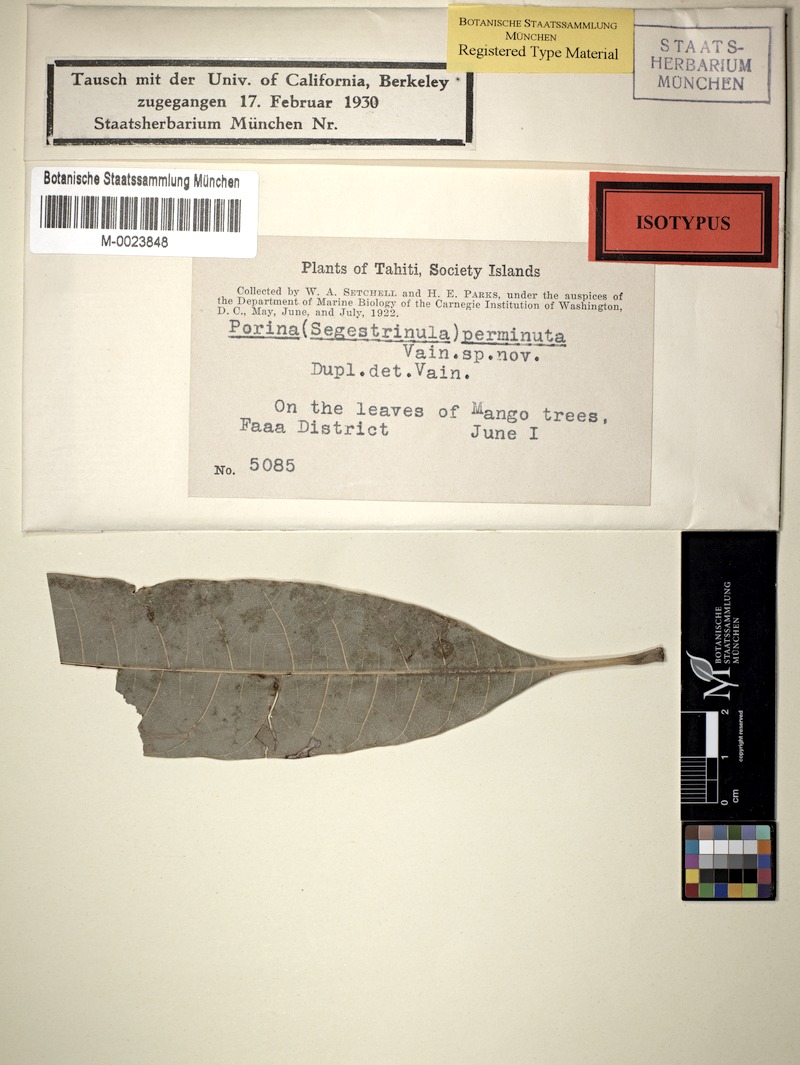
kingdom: Fungi
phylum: Ascomycota
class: Lecanoromycetes
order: Pertusariales
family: Pertusariaceae
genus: Porina
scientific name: Porina perminuta
